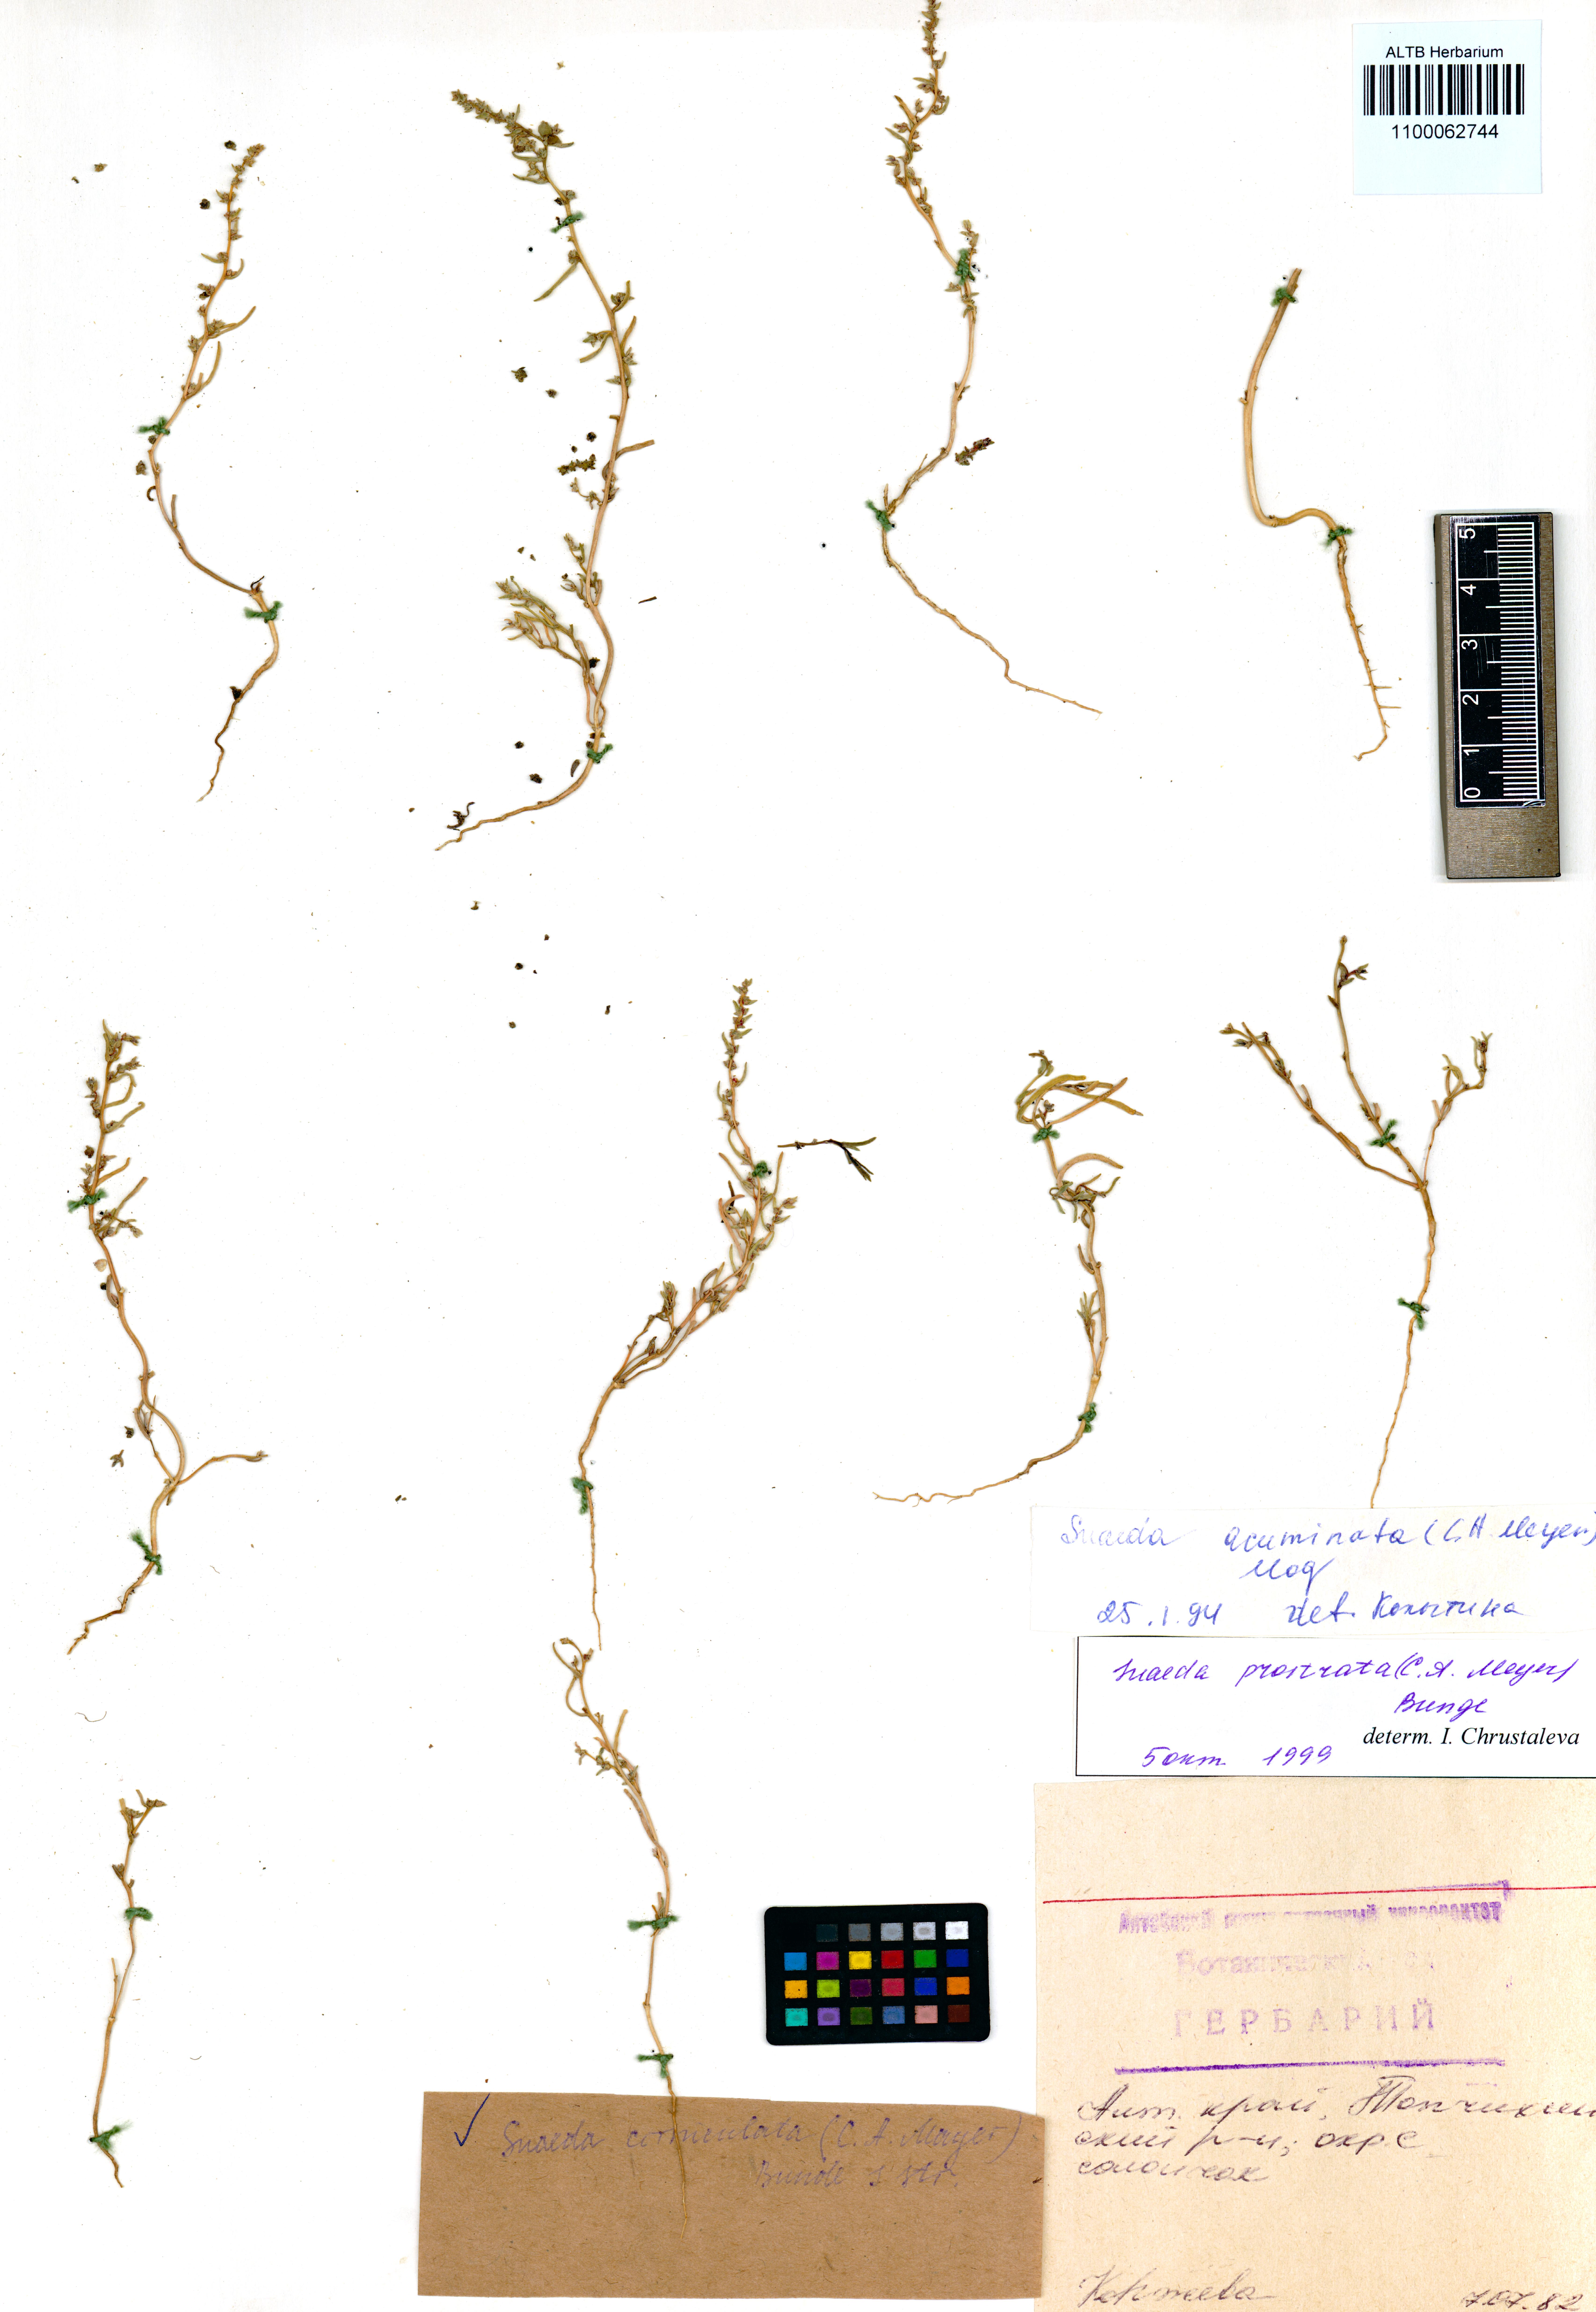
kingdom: Plantae
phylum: Tracheophyta
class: Magnoliopsida
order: Caryophyllales
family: Amaranthaceae
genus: Suaeda
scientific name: Suaeda corniculata
